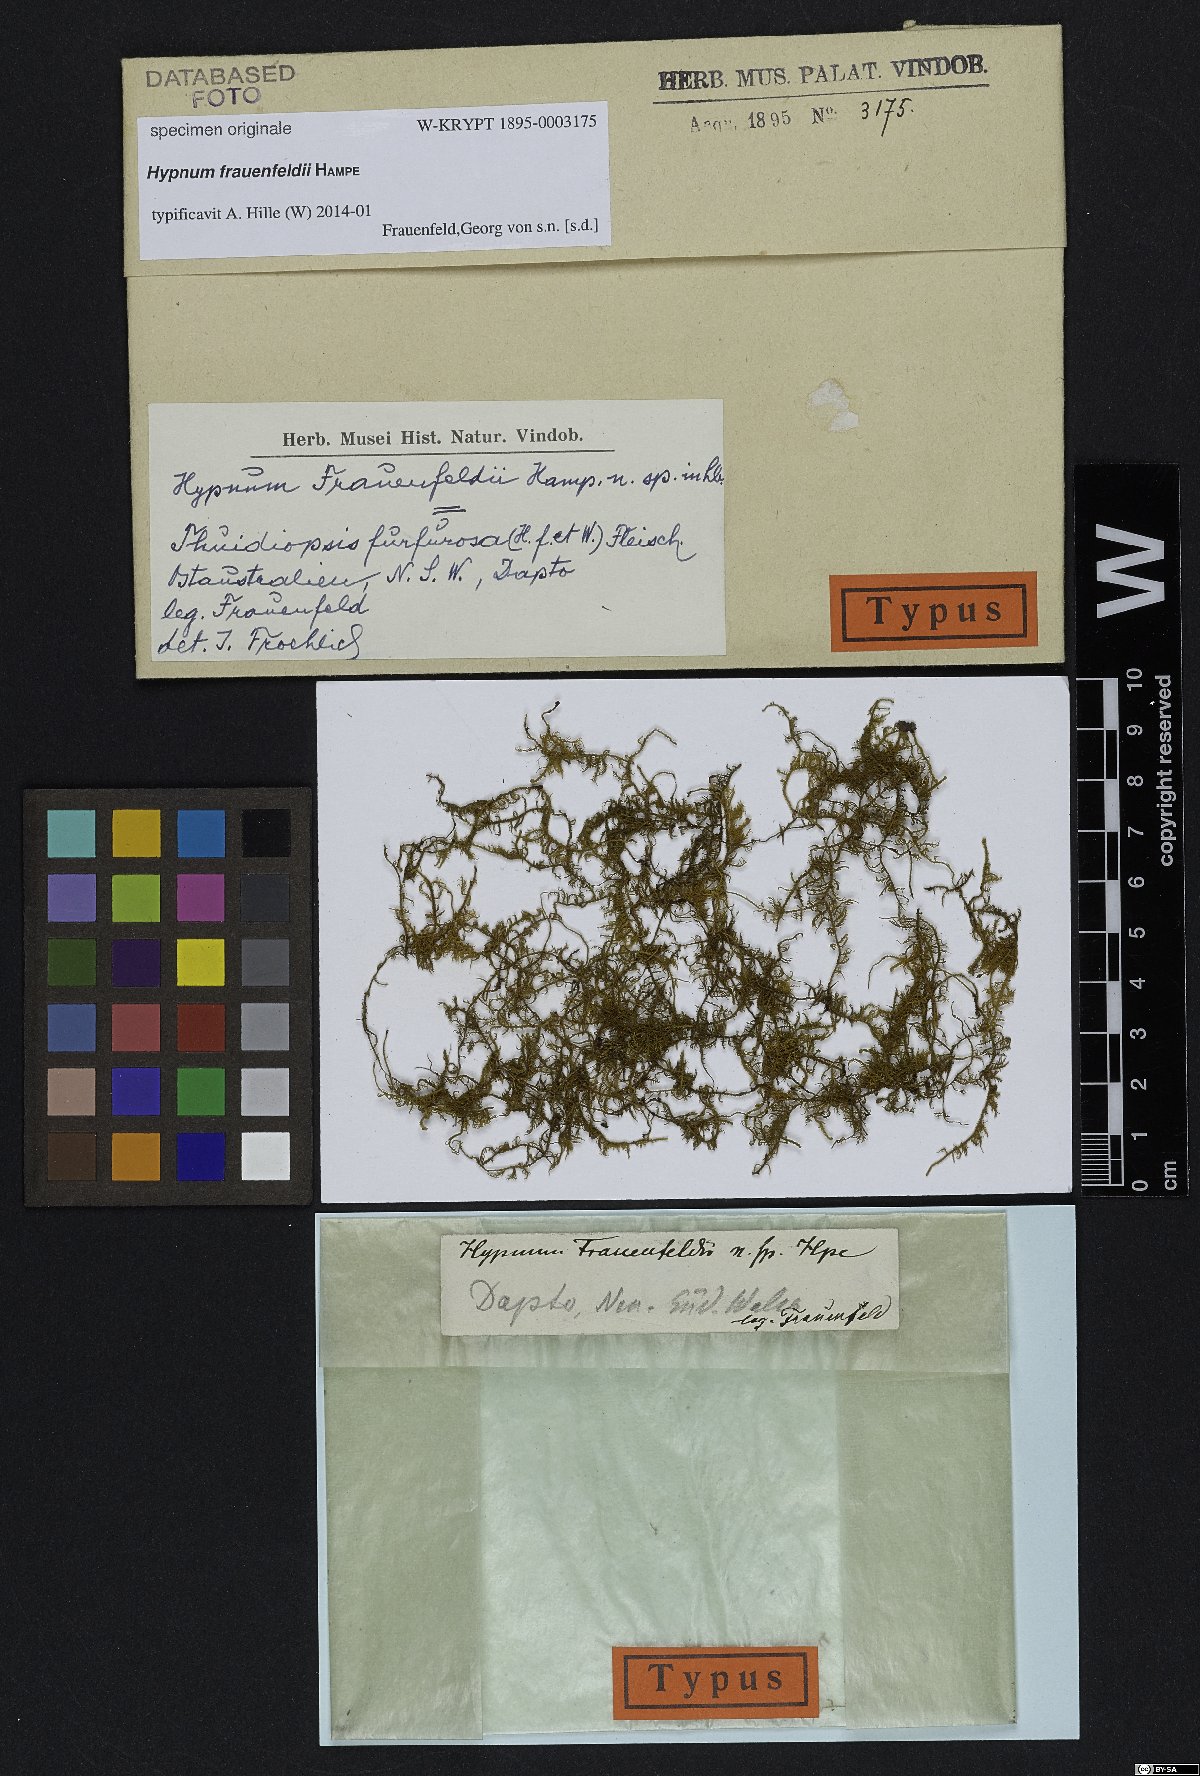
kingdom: Plantae
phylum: Bryophyta
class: Bryopsida
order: Hypnales
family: Hypnaceae
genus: Hypnum
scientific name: Hypnum
